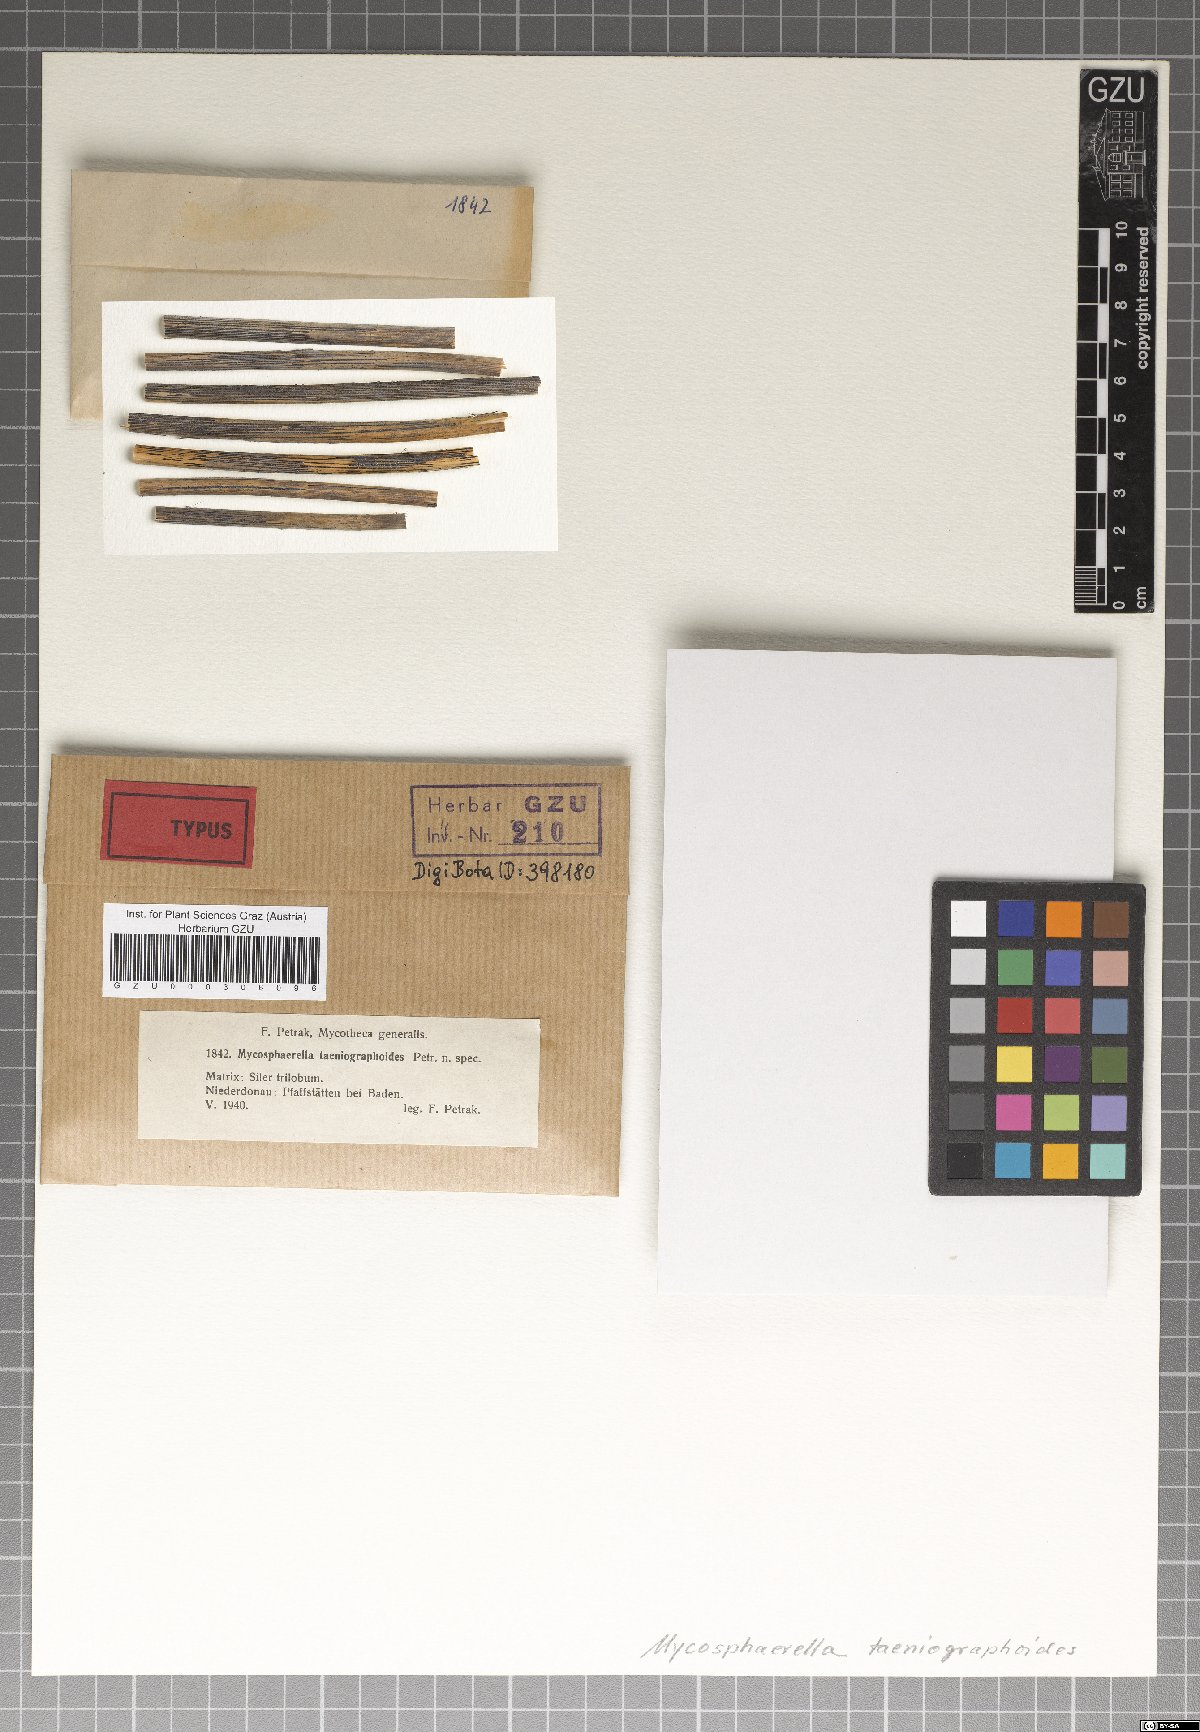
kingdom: Fungi
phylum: Ascomycota
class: Dothideomycetes
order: Mycosphaerellales
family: Mycosphaerellaceae
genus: Mycosphaerella
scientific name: Mycosphaerella taeniographoides
